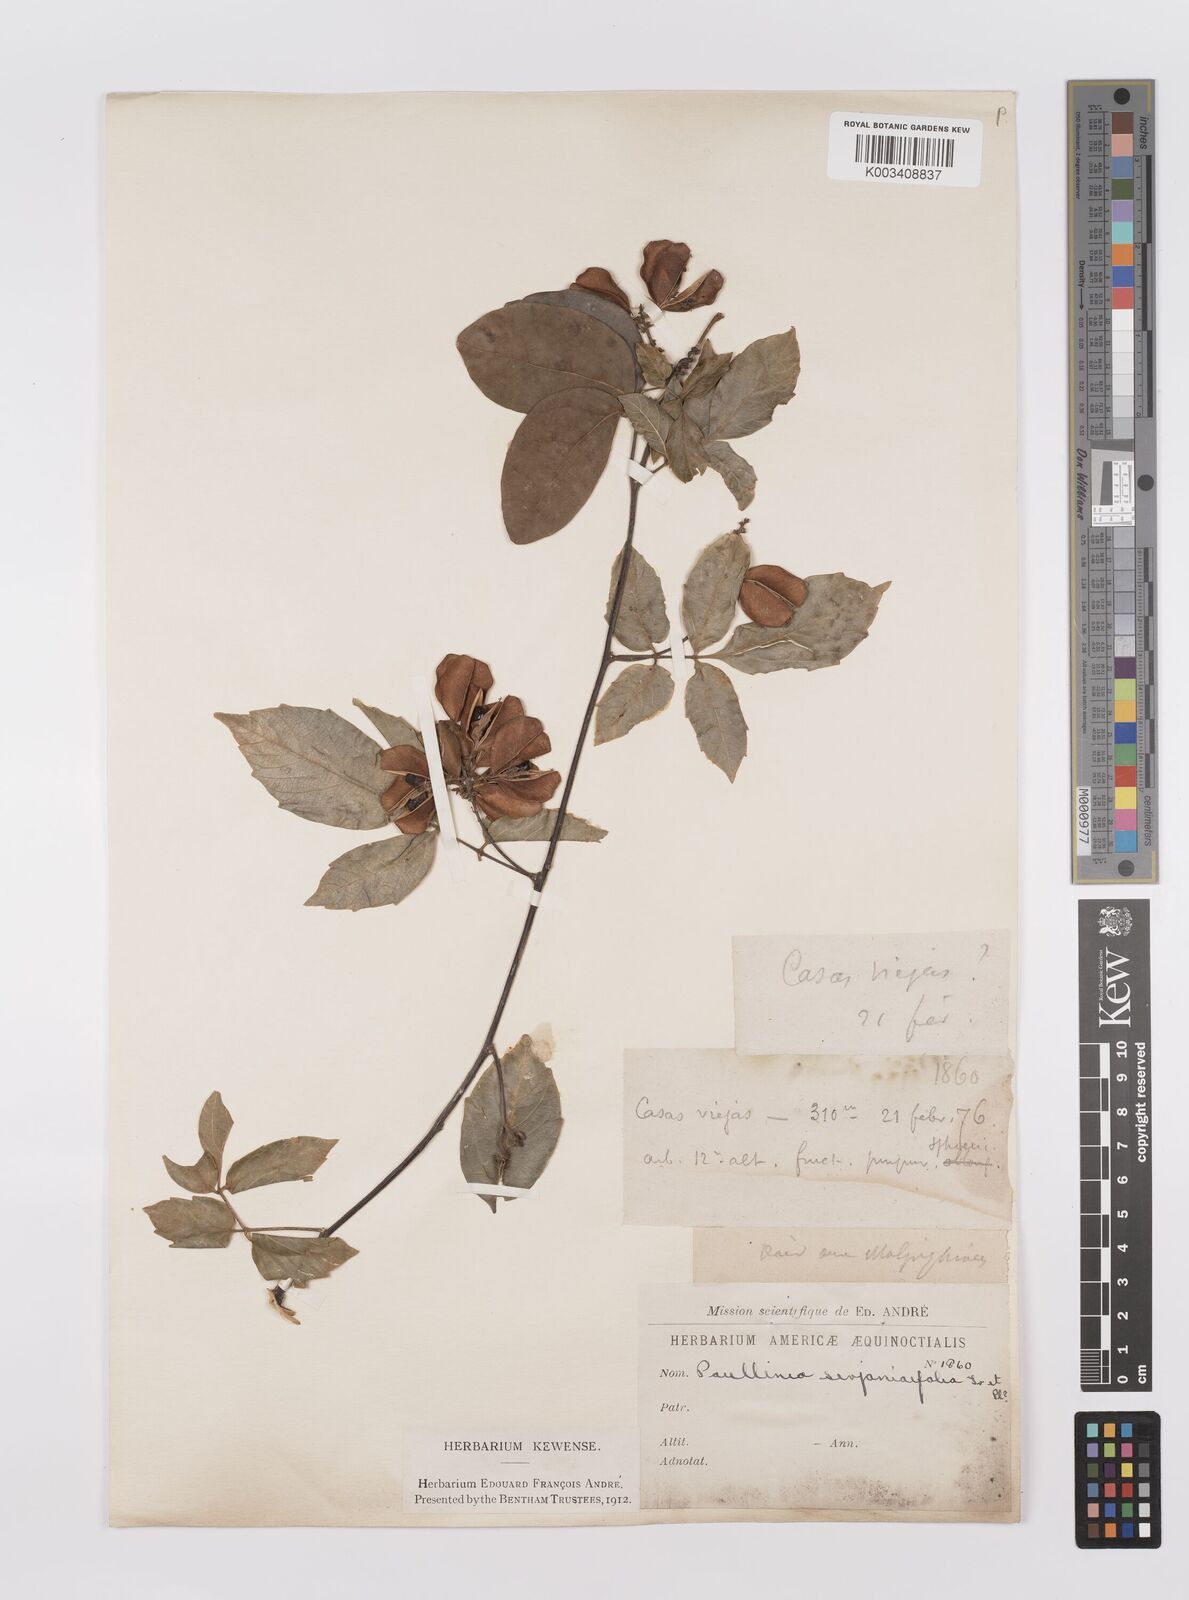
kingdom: Plantae
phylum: Tracheophyta
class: Magnoliopsida
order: Sapindales
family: Sapindaceae
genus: Paullinia
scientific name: Paullinia serjaniifolia
